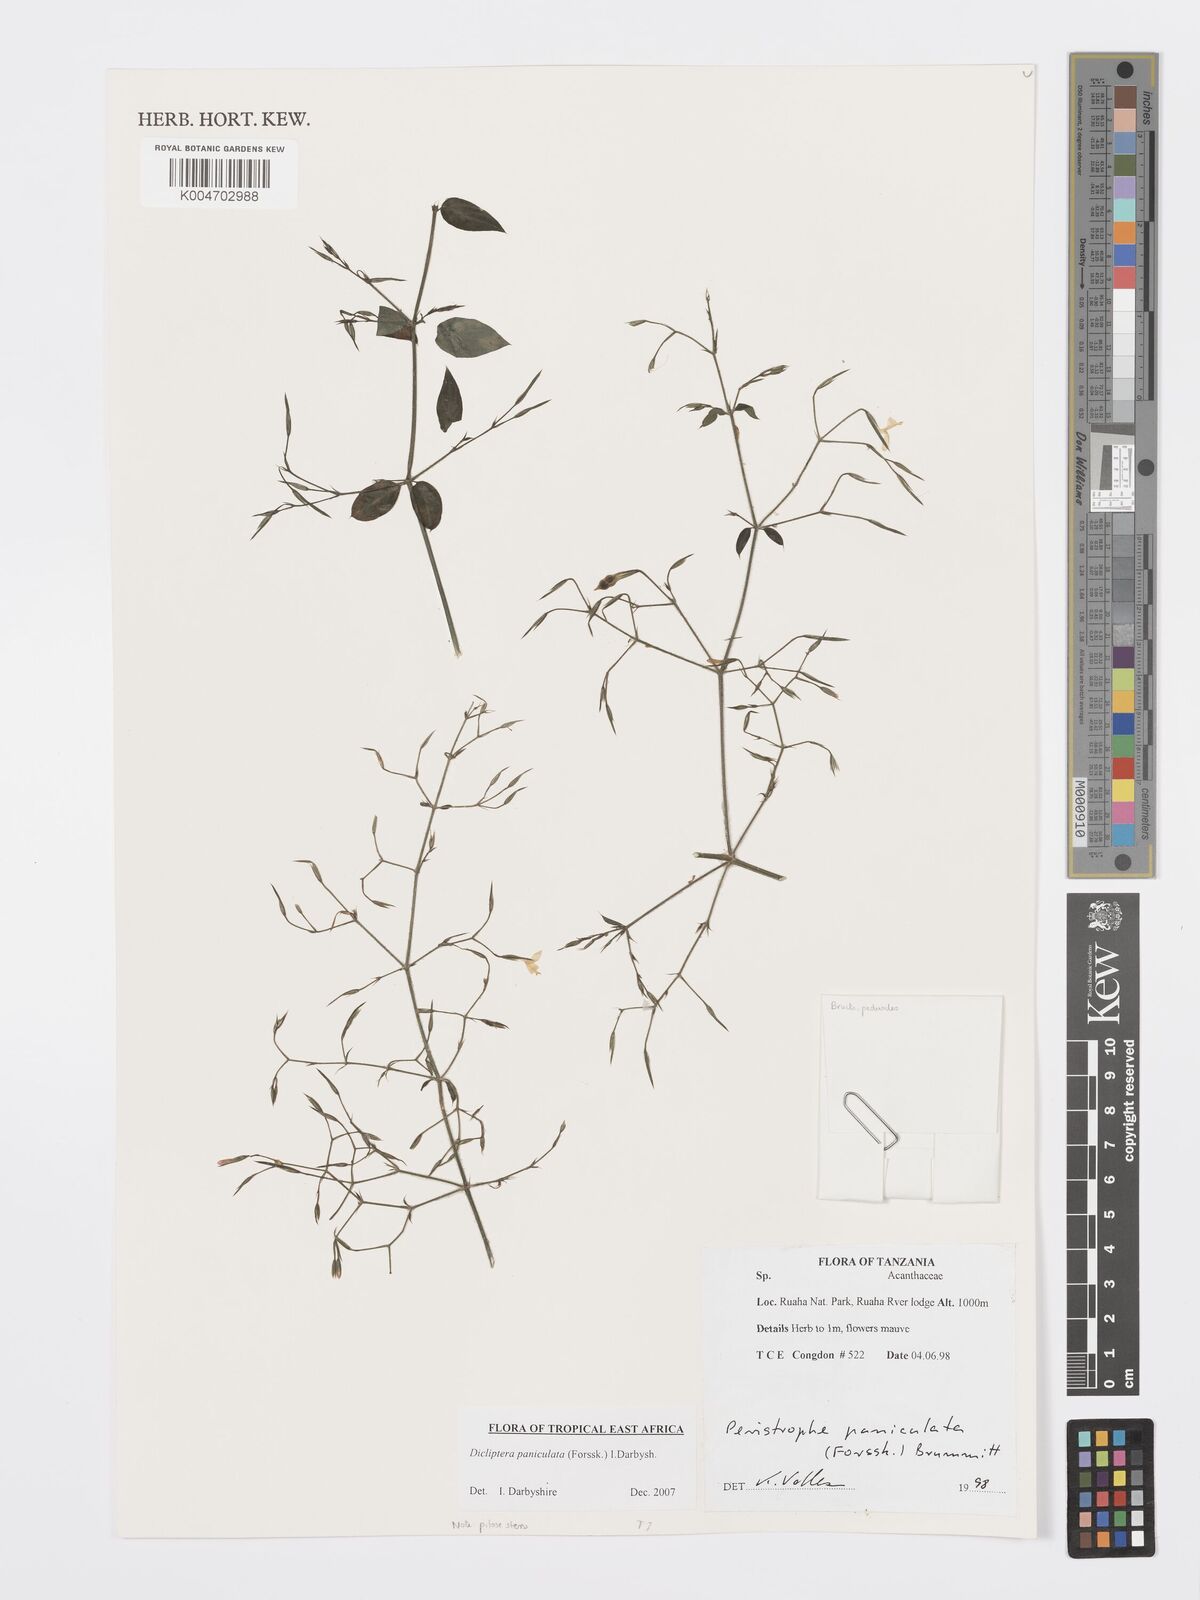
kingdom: Plantae
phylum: Tracheophyta
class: Magnoliopsida
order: Lamiales
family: Acanthaceae
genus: Dicliptera
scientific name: Dicliptera paniculata
